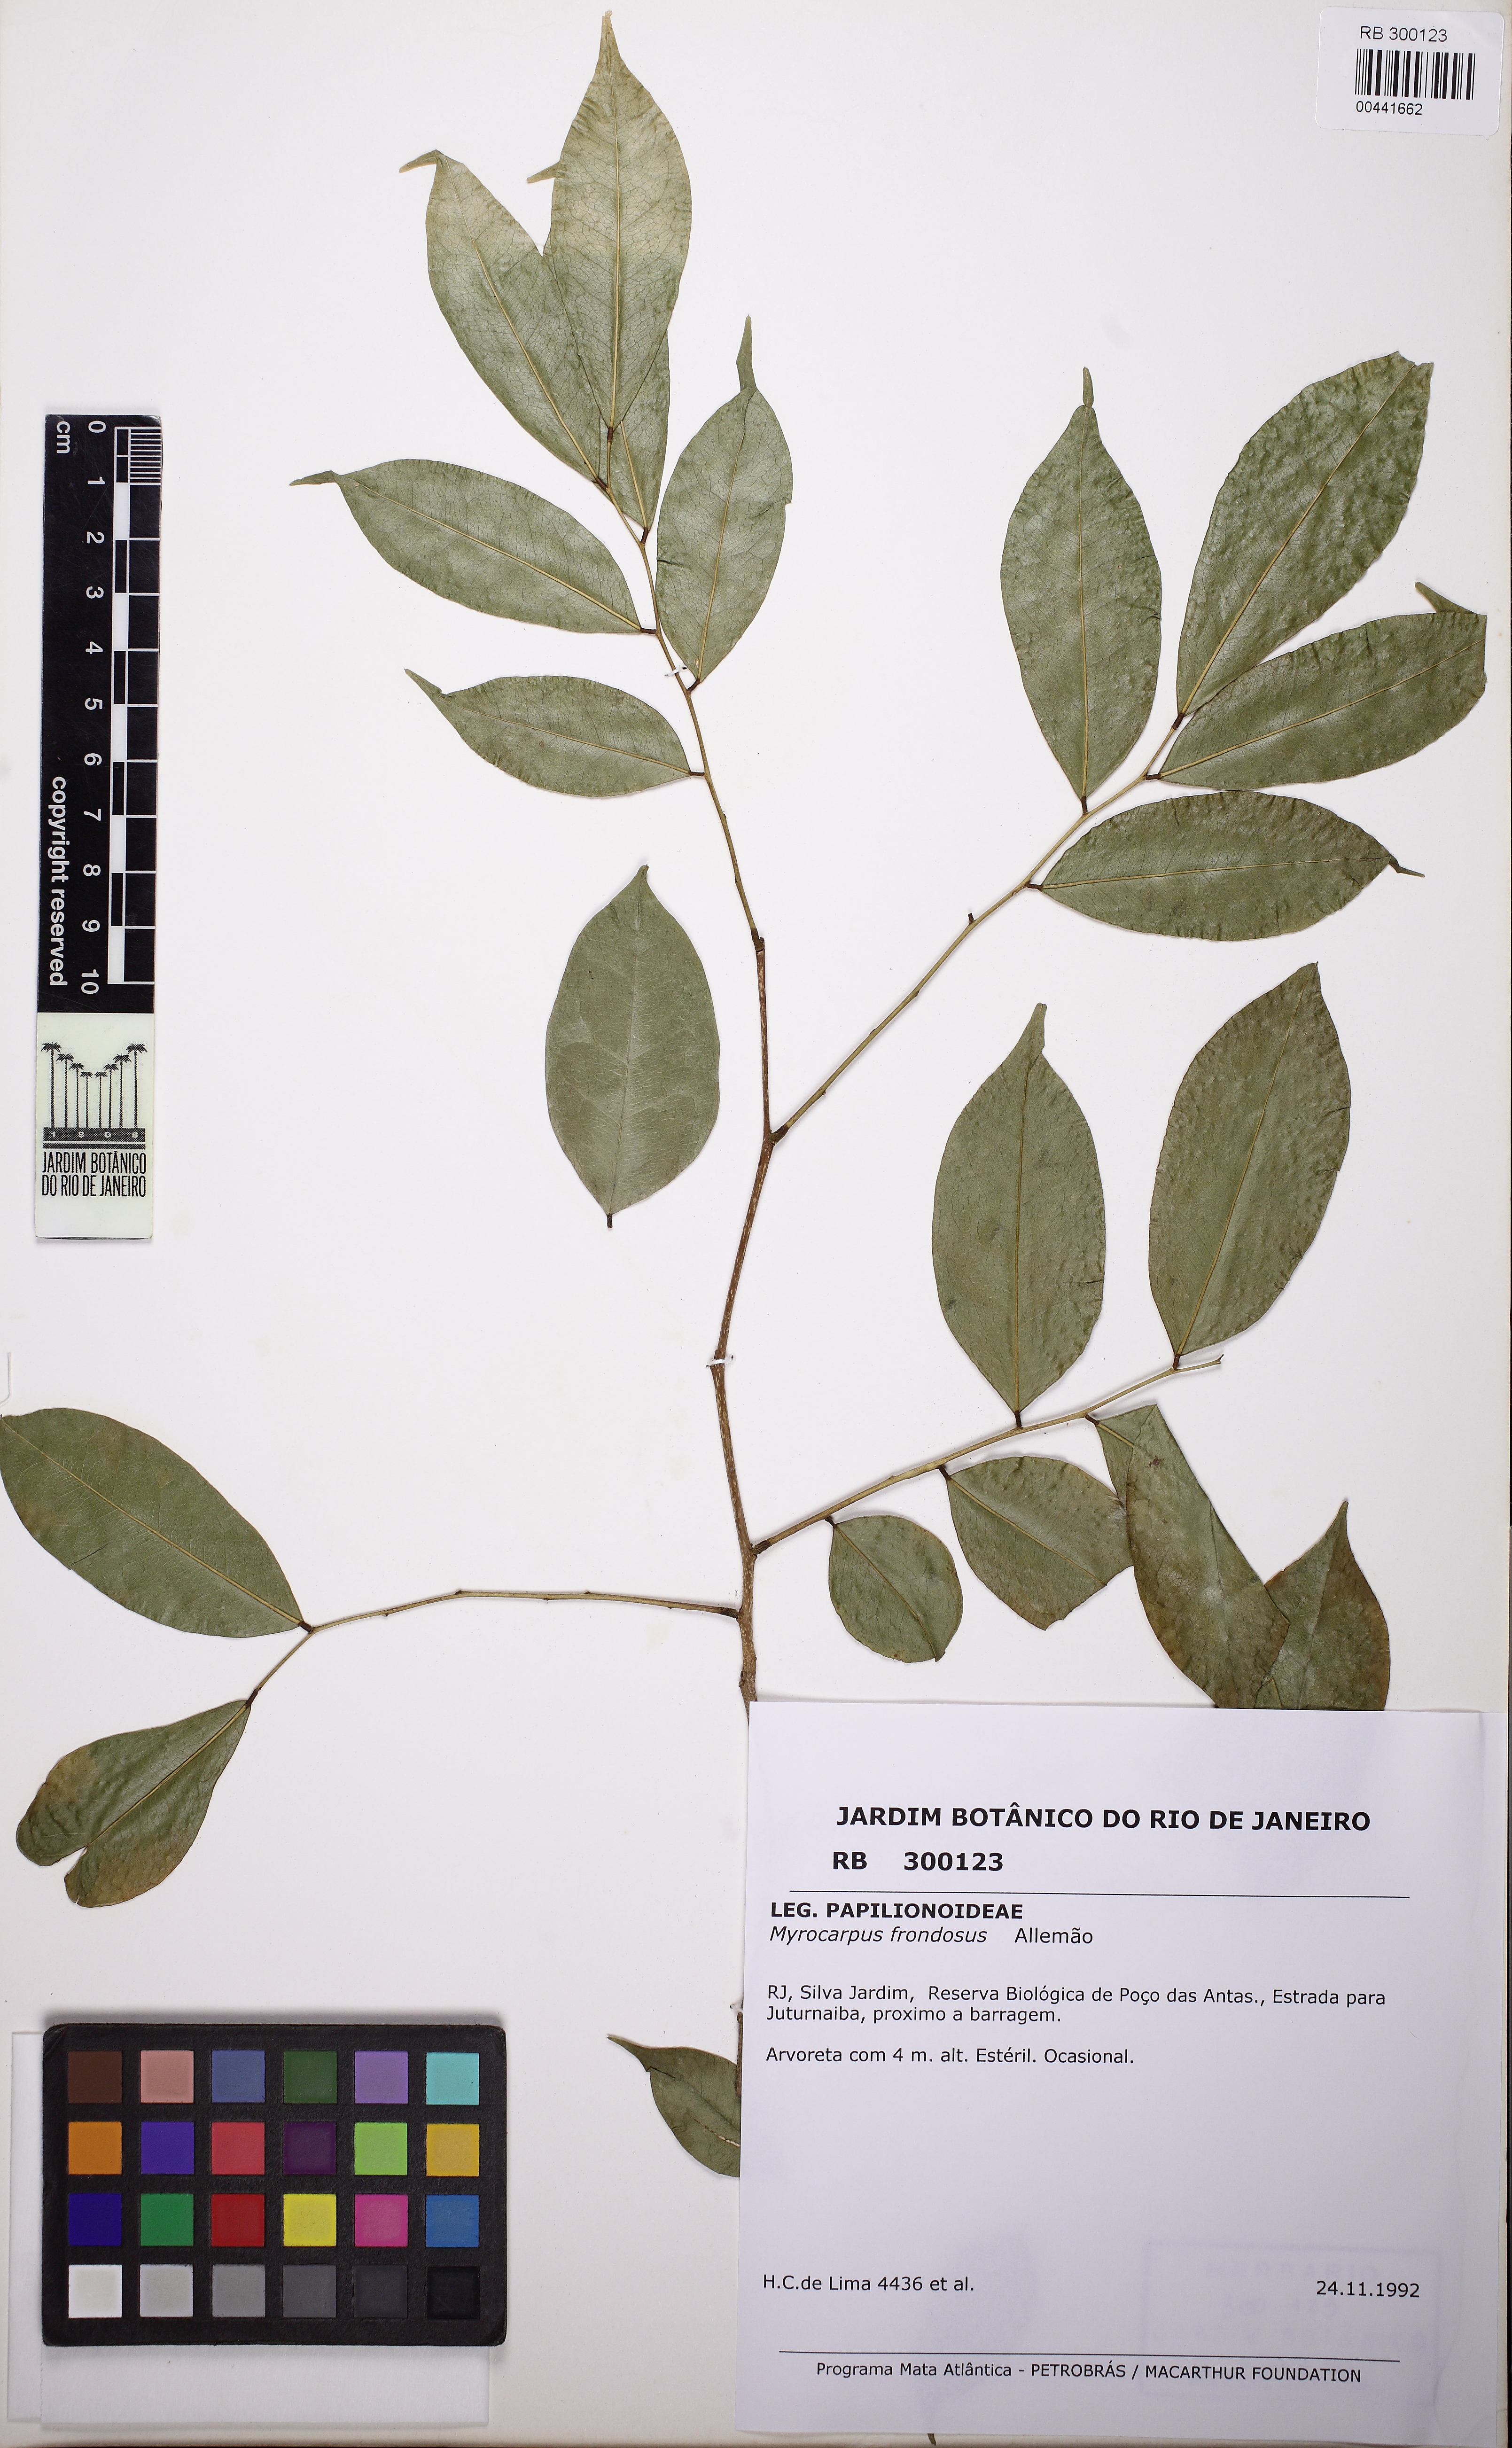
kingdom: Plantae
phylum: Tracheophyta
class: Magnoliopsida
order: Fabales
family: Fabaceae
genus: Myrocarpus
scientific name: Myrocarpus frondosus
